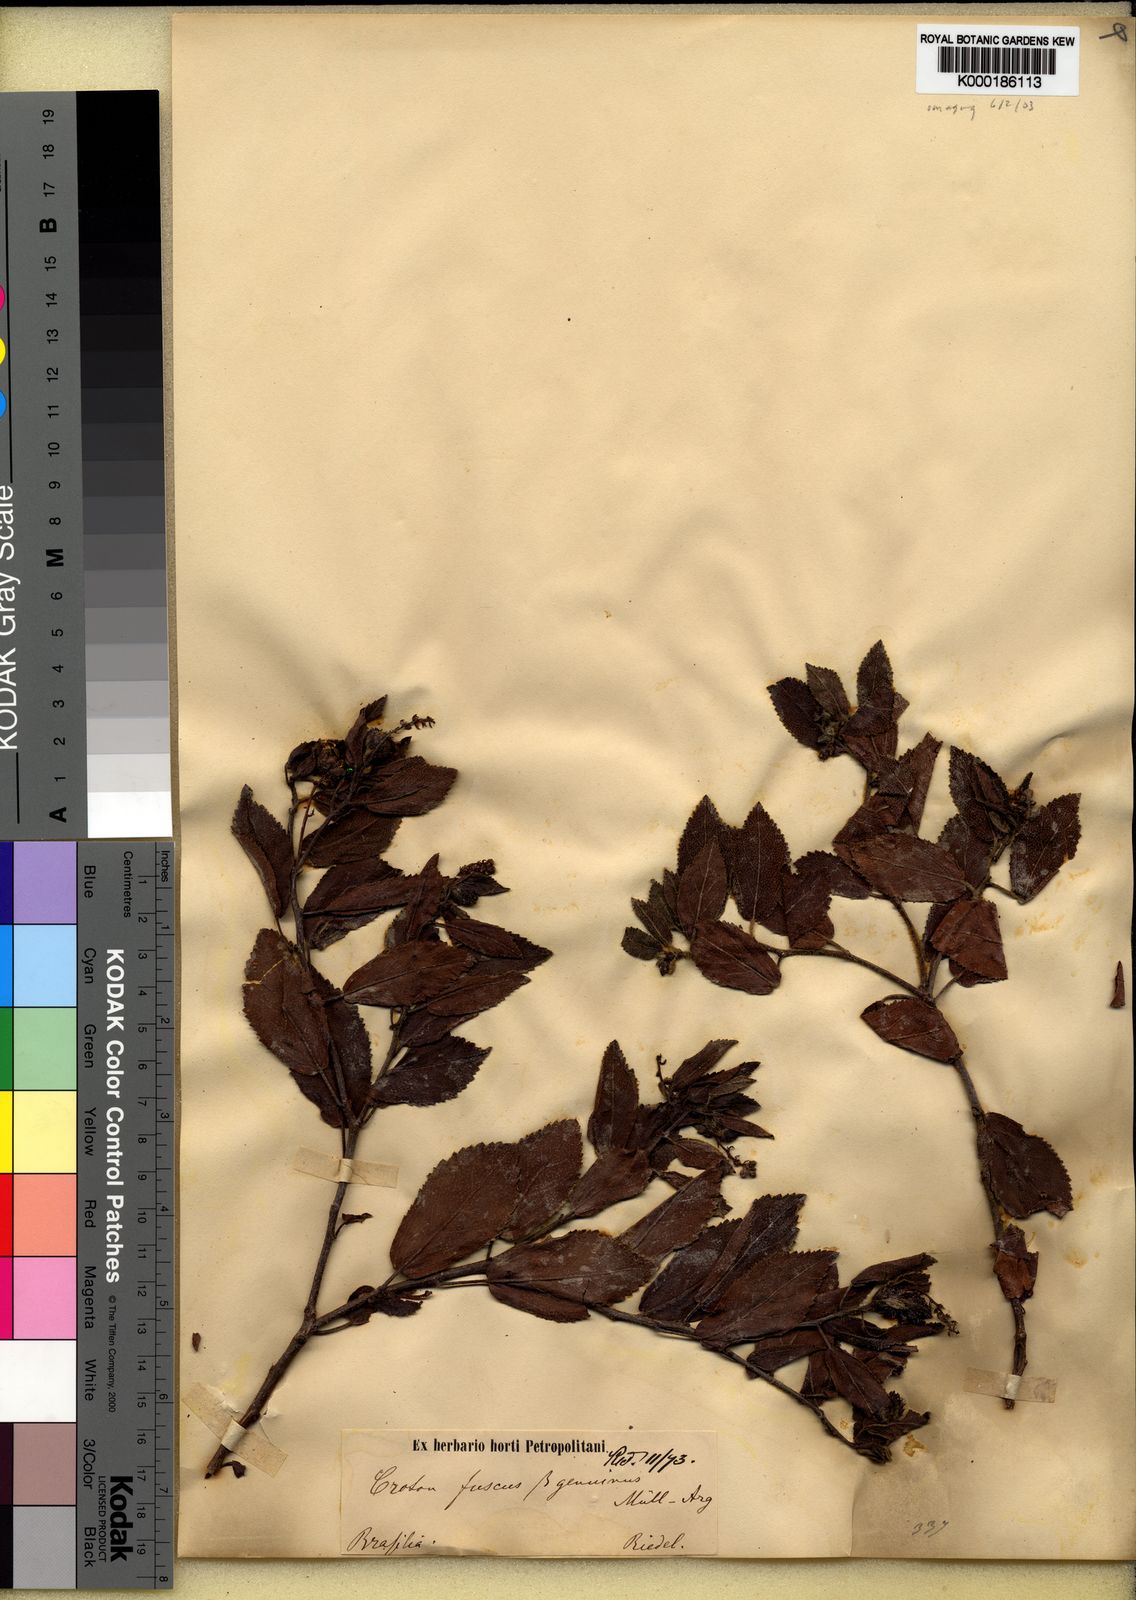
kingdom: Plantae
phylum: Tracheophyta
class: Magnoliopsida
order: Malpighiales
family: Euphorbiaceae
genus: Croton
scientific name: Croton
